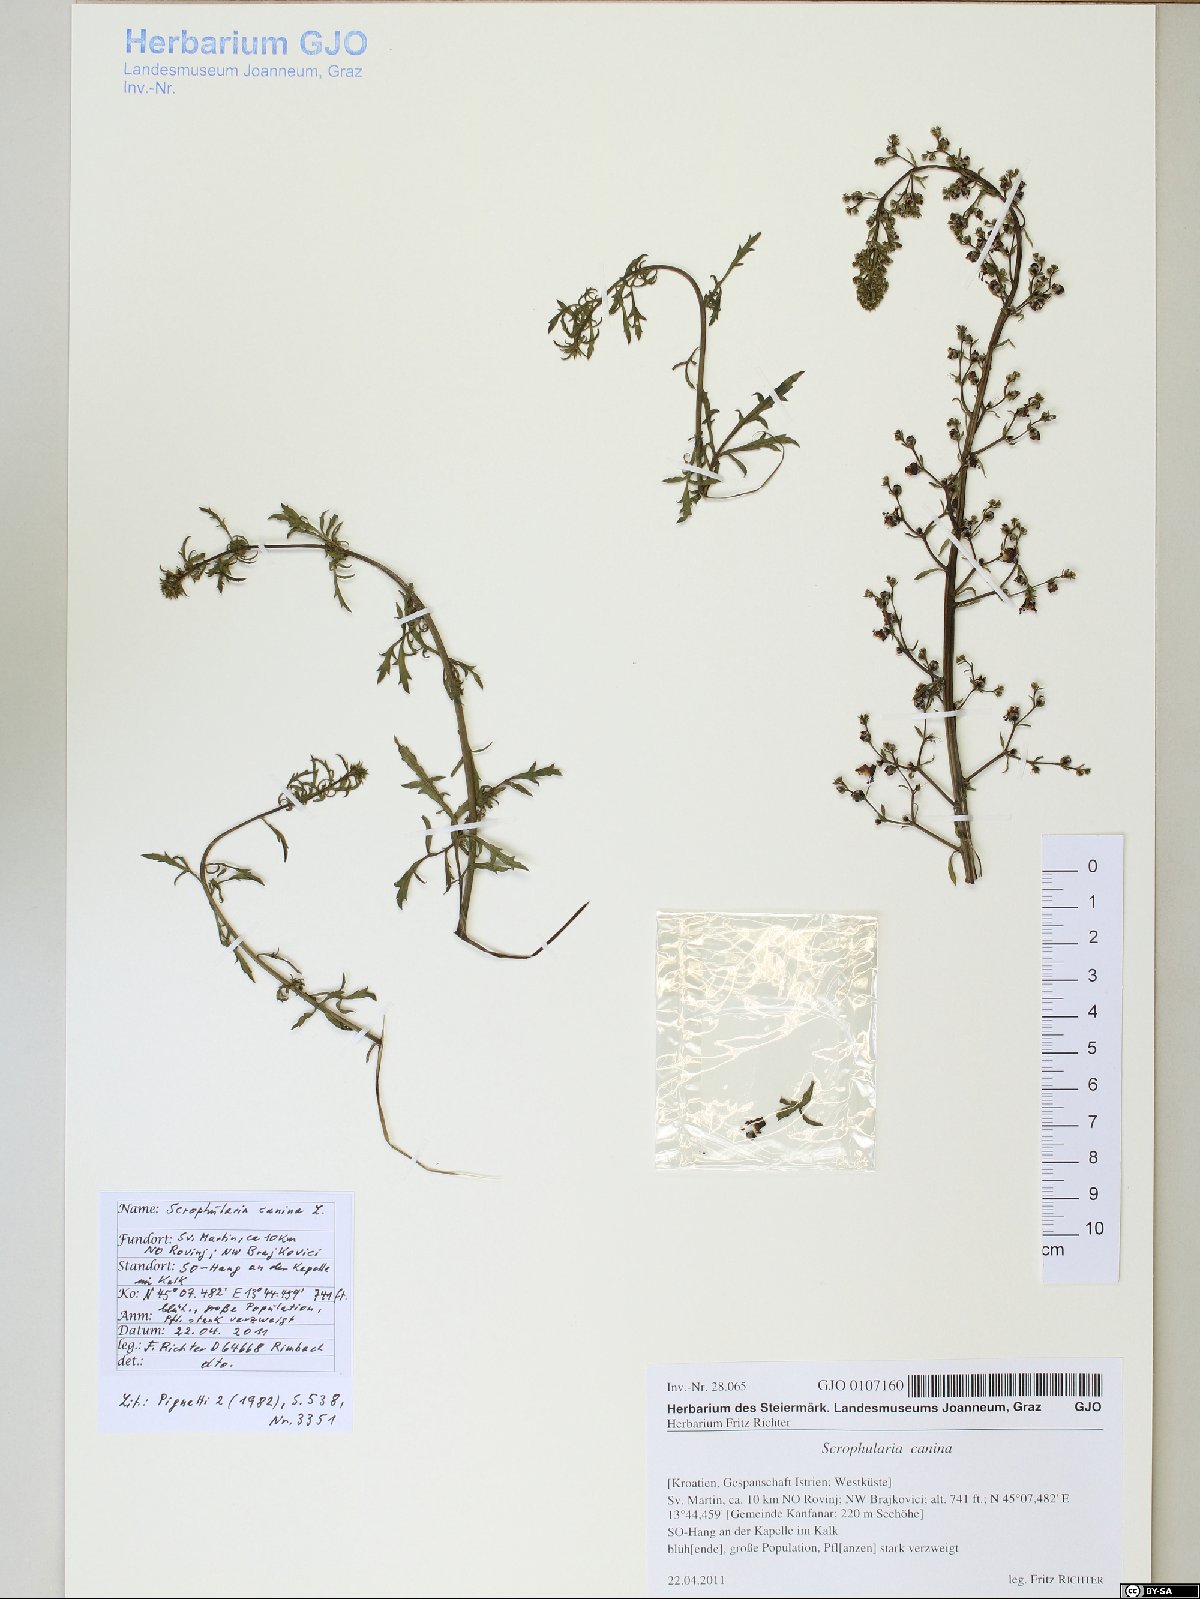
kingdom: Plantae
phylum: Tracheophyta
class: Magnoliopsida
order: Lamiales
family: Scrophulariaceae
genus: Scrophularia
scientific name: Scrophularia canina
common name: French figwort
